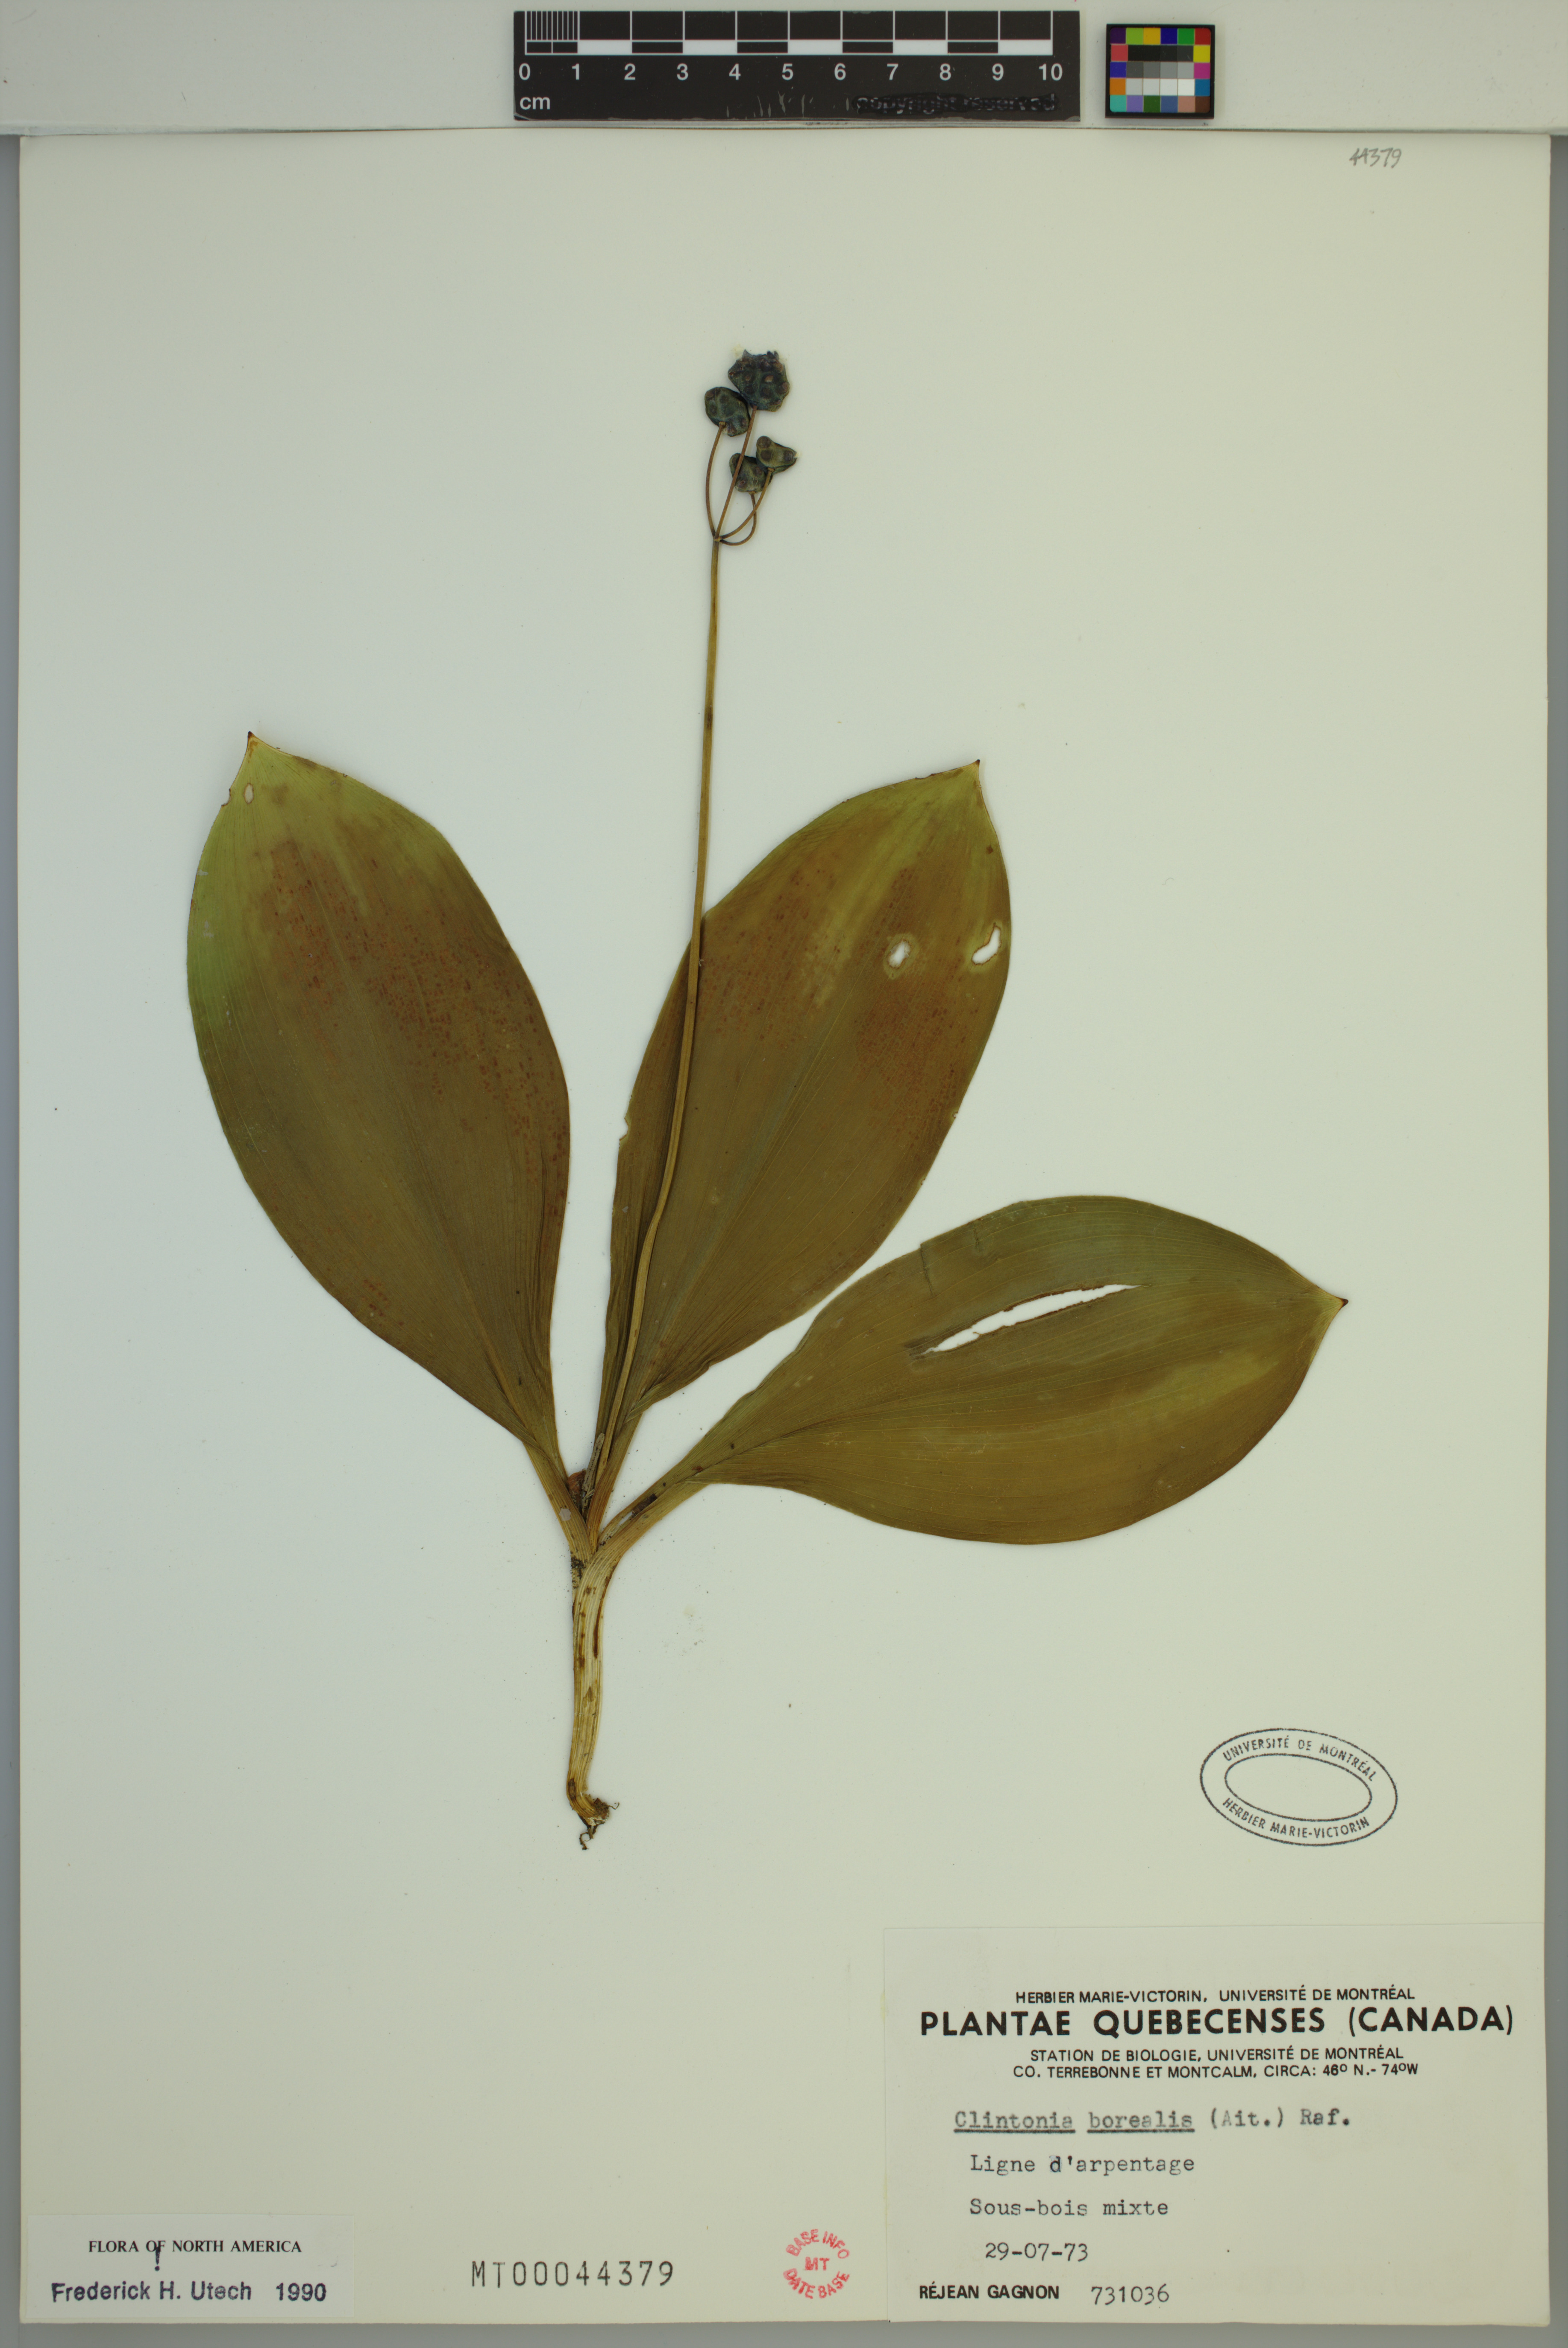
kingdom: Plantae
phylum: Tracheophyta
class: Liliopsida
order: Liliales
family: Liliaceae
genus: Clintonia
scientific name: Clintonia borealis
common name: Yellow clintonia
